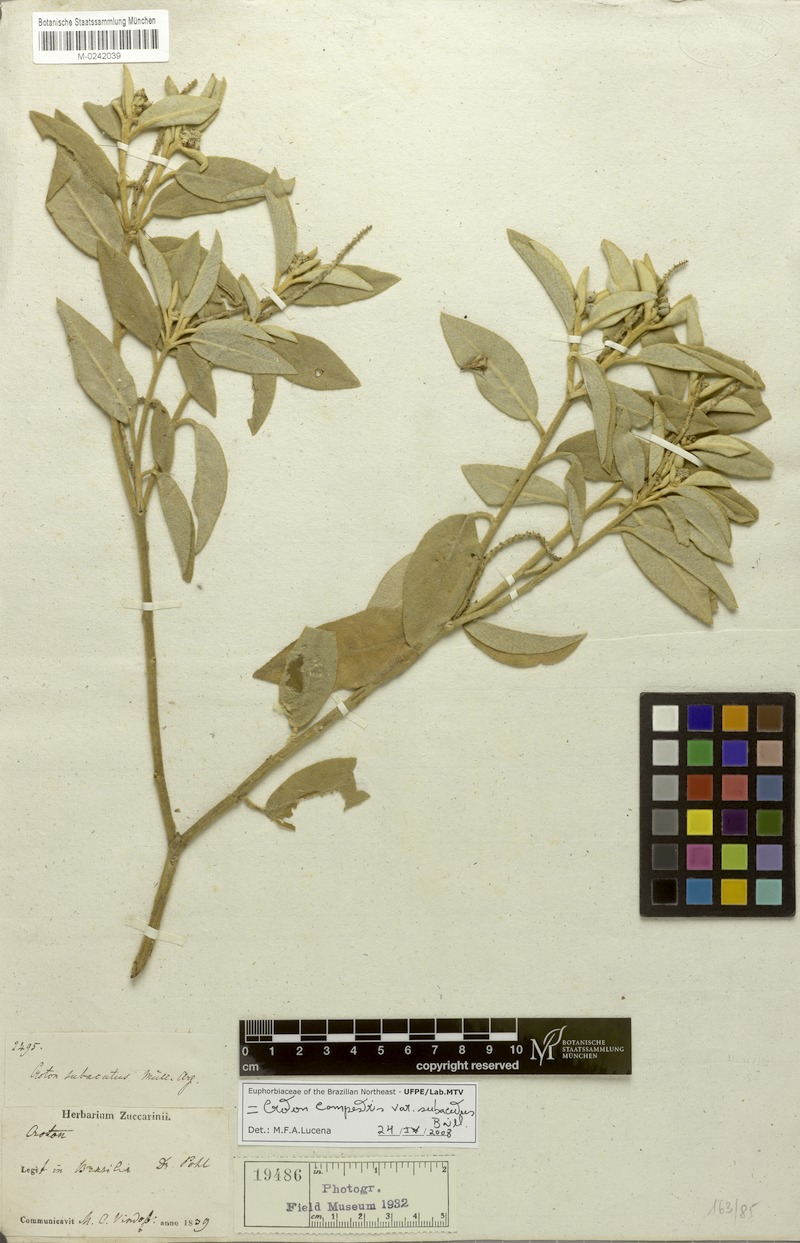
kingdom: Plantae
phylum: Tracheophyta
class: Magnoliopsida
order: Malpighiales
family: Euphorbiaceae
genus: Croton
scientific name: Croton subacutus
